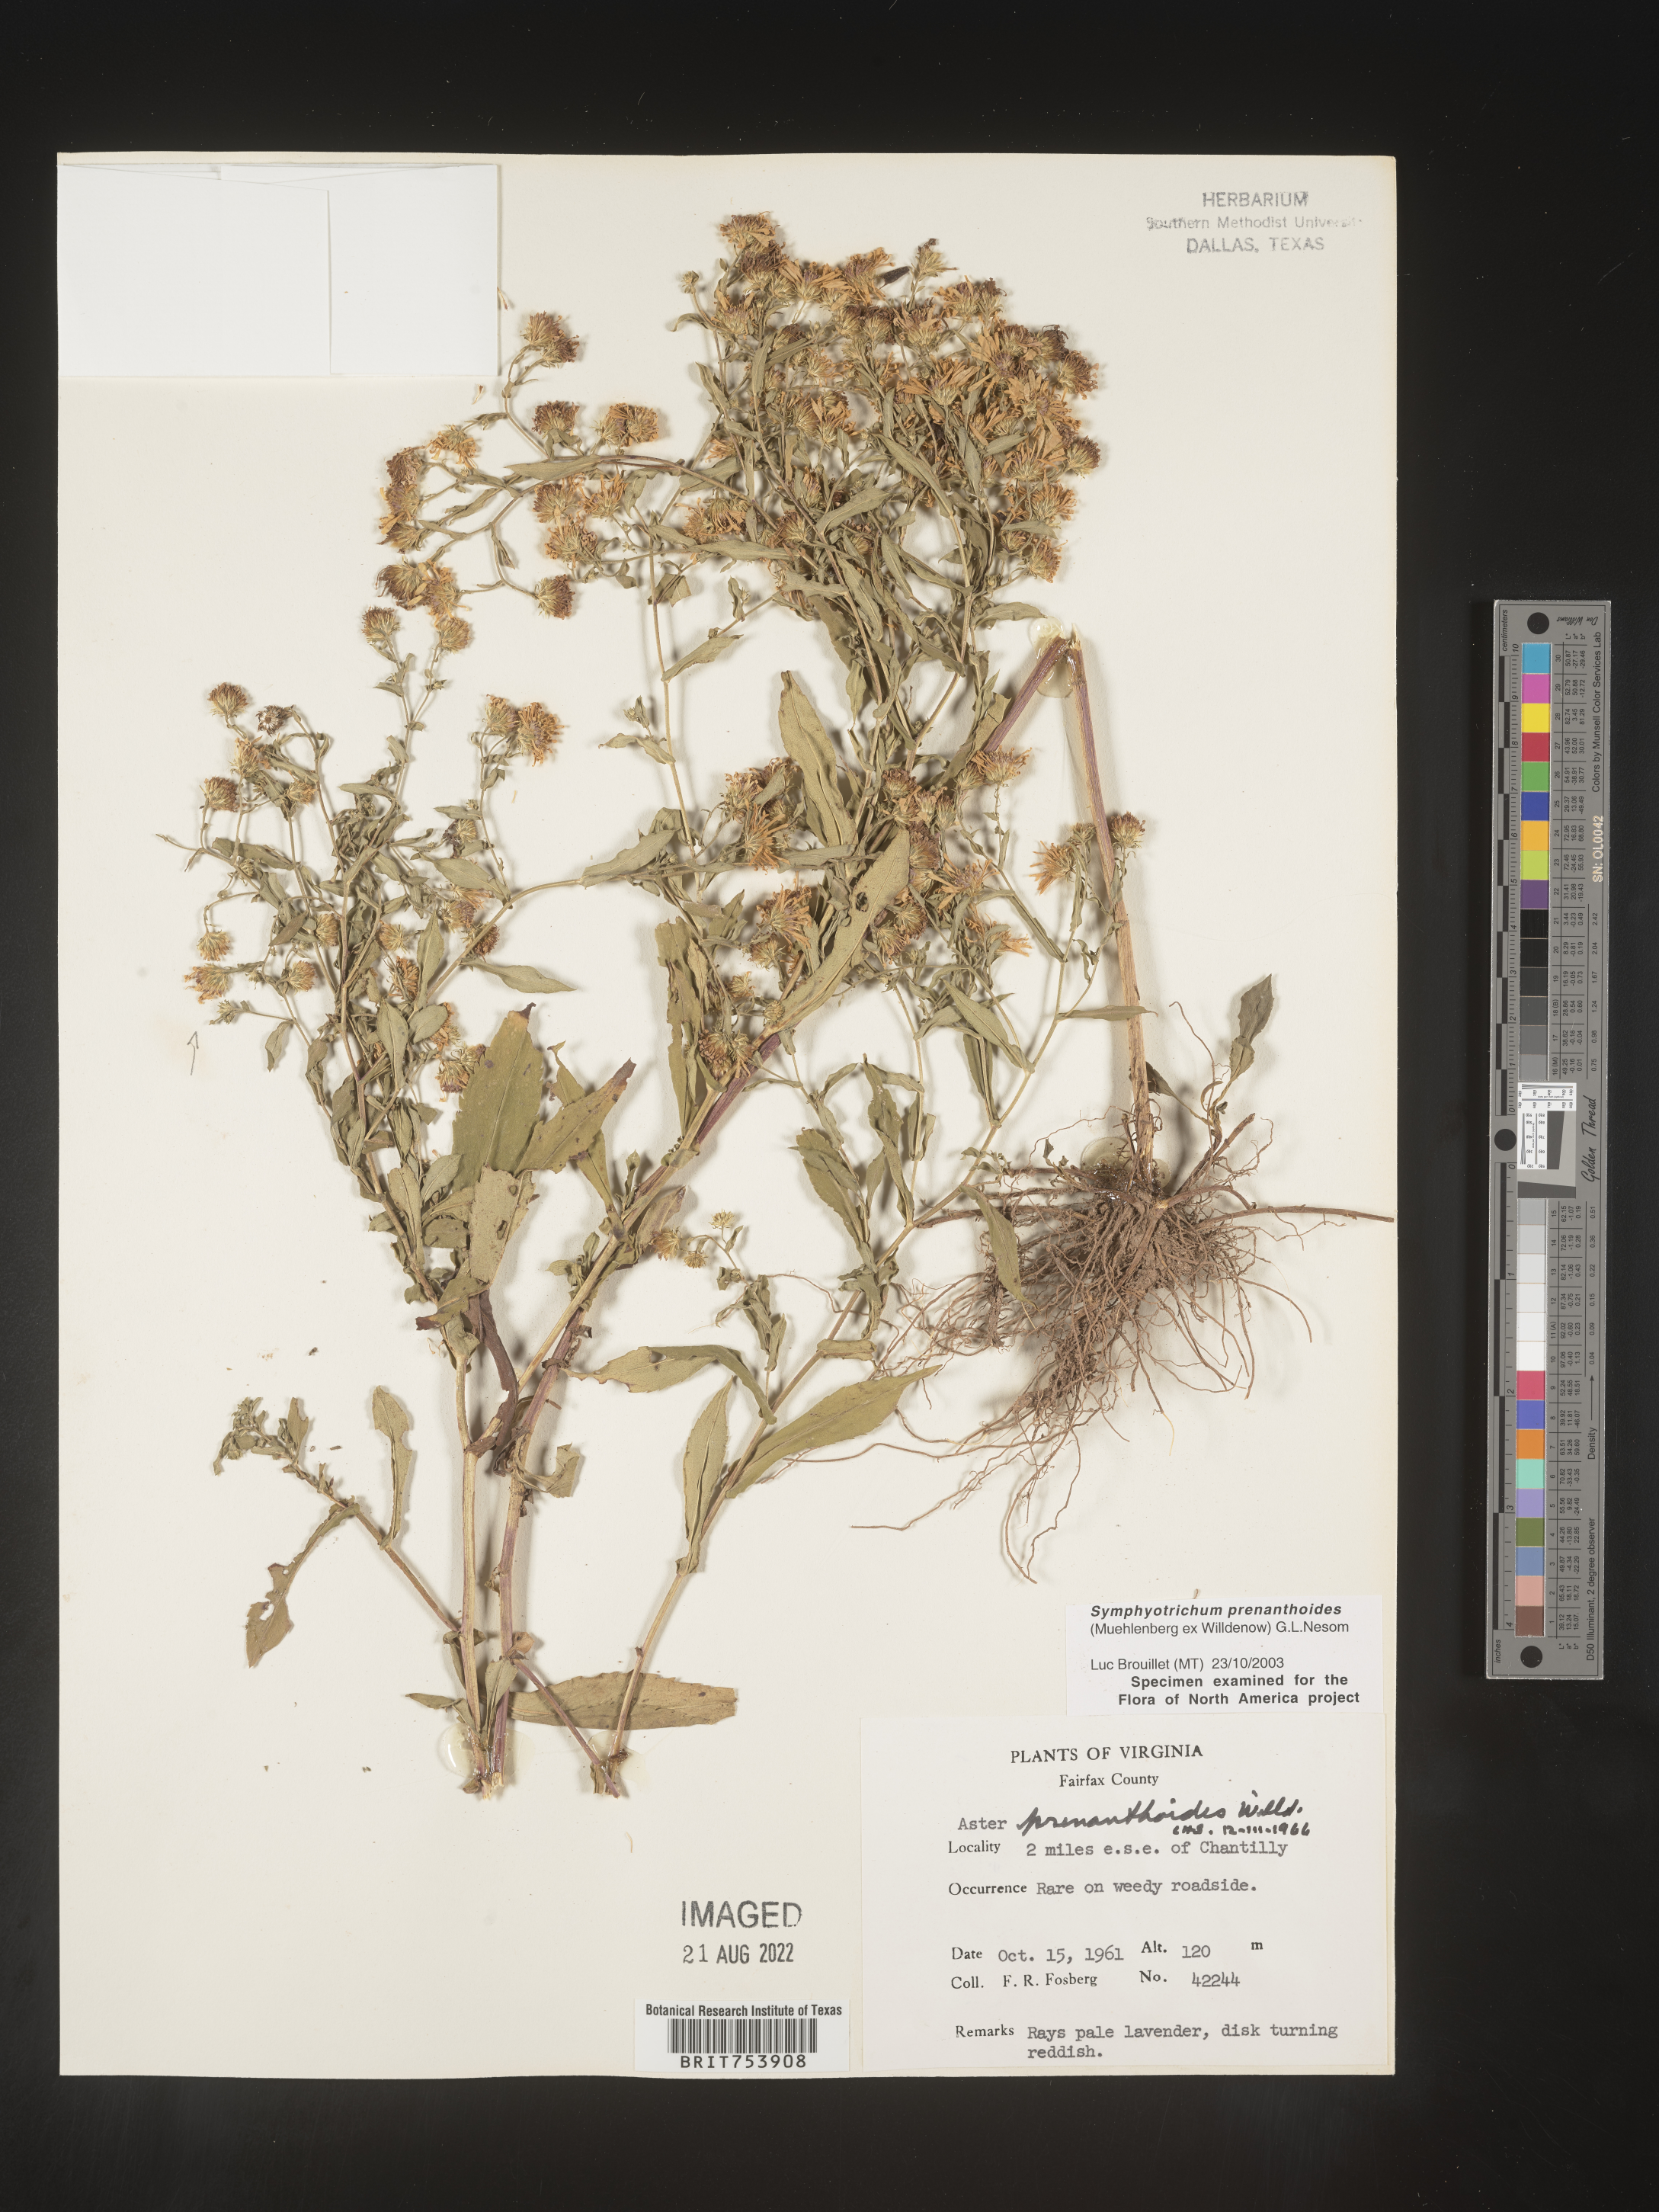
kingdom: Plantae
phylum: Tracheophyta
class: Magnoliopsida
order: Asterales
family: Asteraceae
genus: Symphyotrichum
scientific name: Symphyotrichum prenanthoides
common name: Crooked-stem aster
